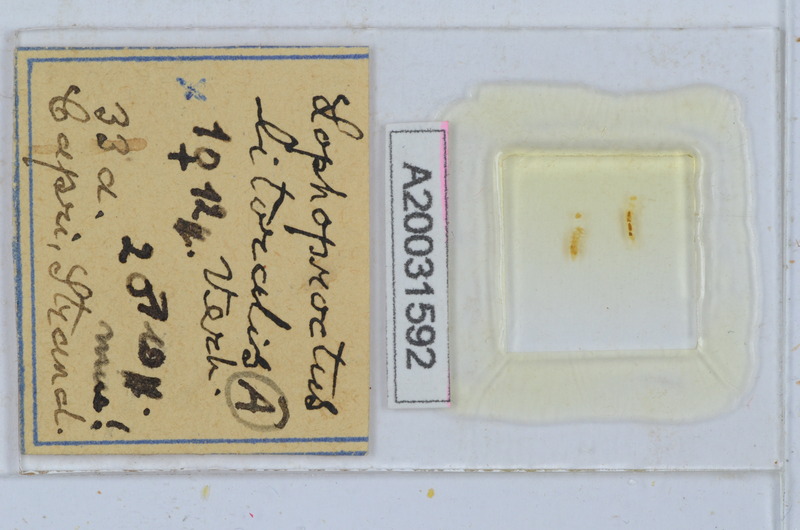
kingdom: Animalia
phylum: Arthropoda
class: Diplopoda
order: Polyxenida
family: Lophoproctidae
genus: Lophoproctus
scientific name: Lophoproctus jeanneli
